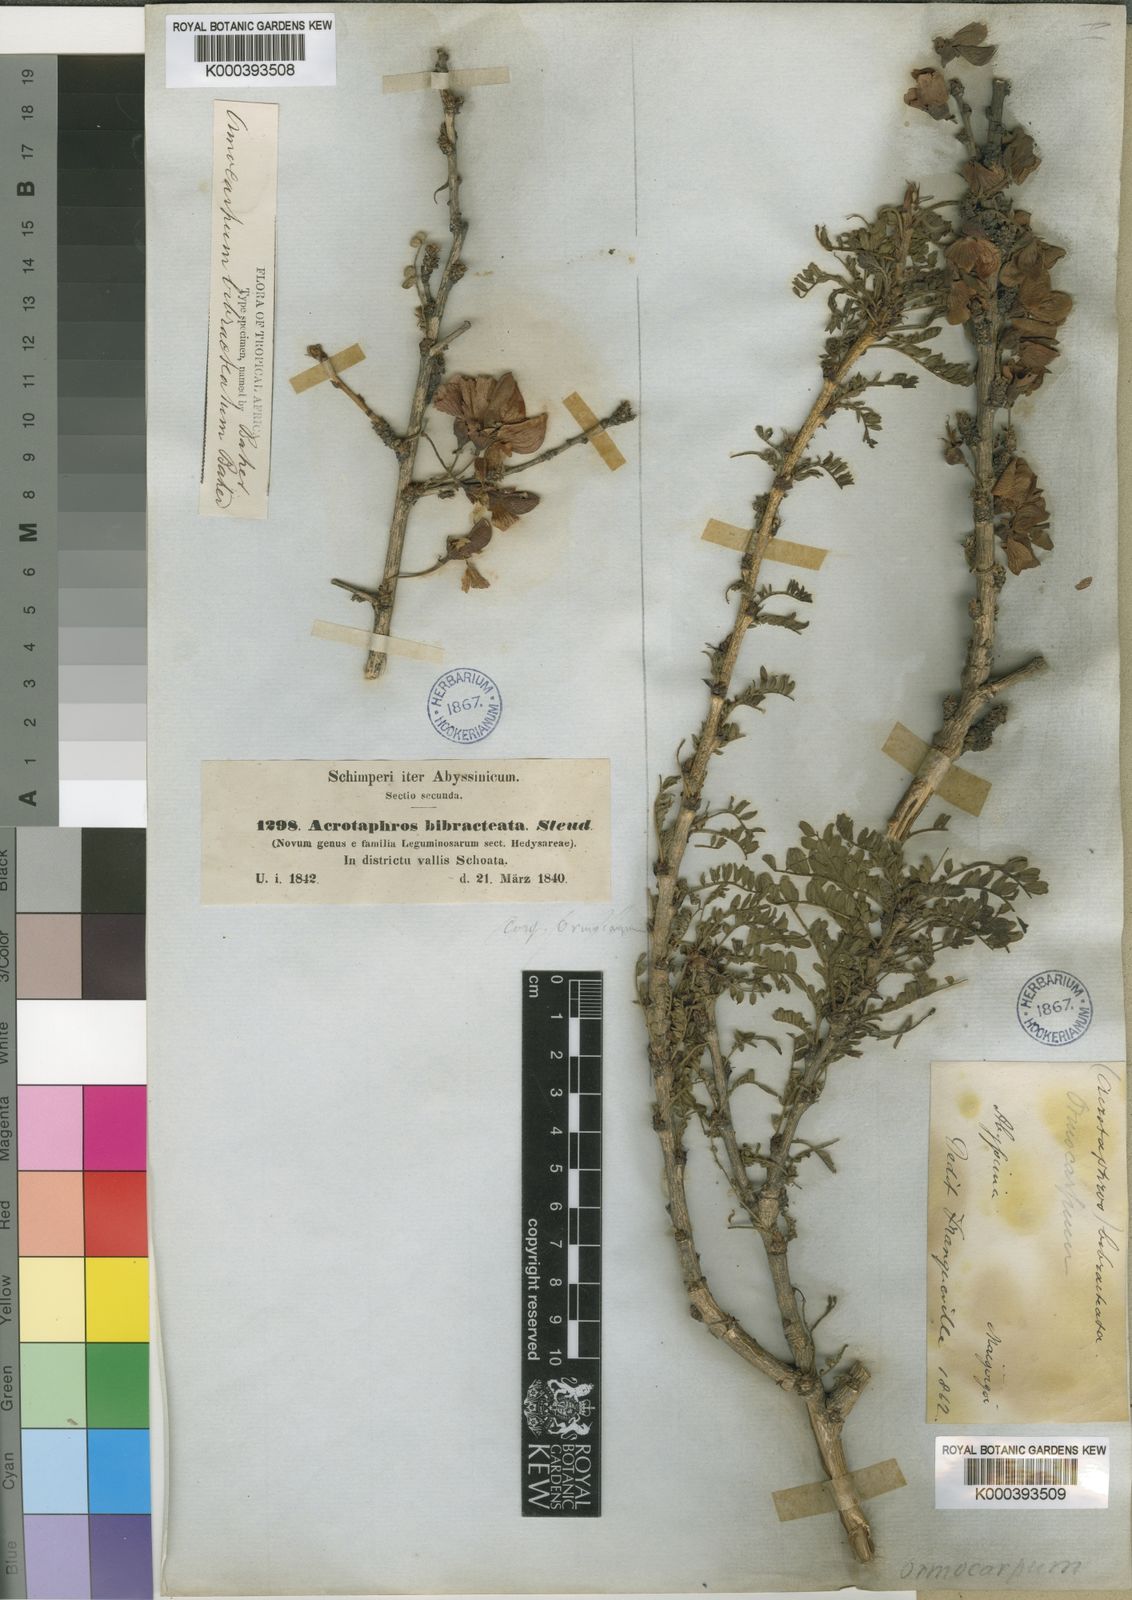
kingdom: Plantae
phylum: Tracheophyta
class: Magnoliopsida
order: Fabales
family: Fabaceae
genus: Ormocarpum
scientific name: Ormocarpum pubescens
